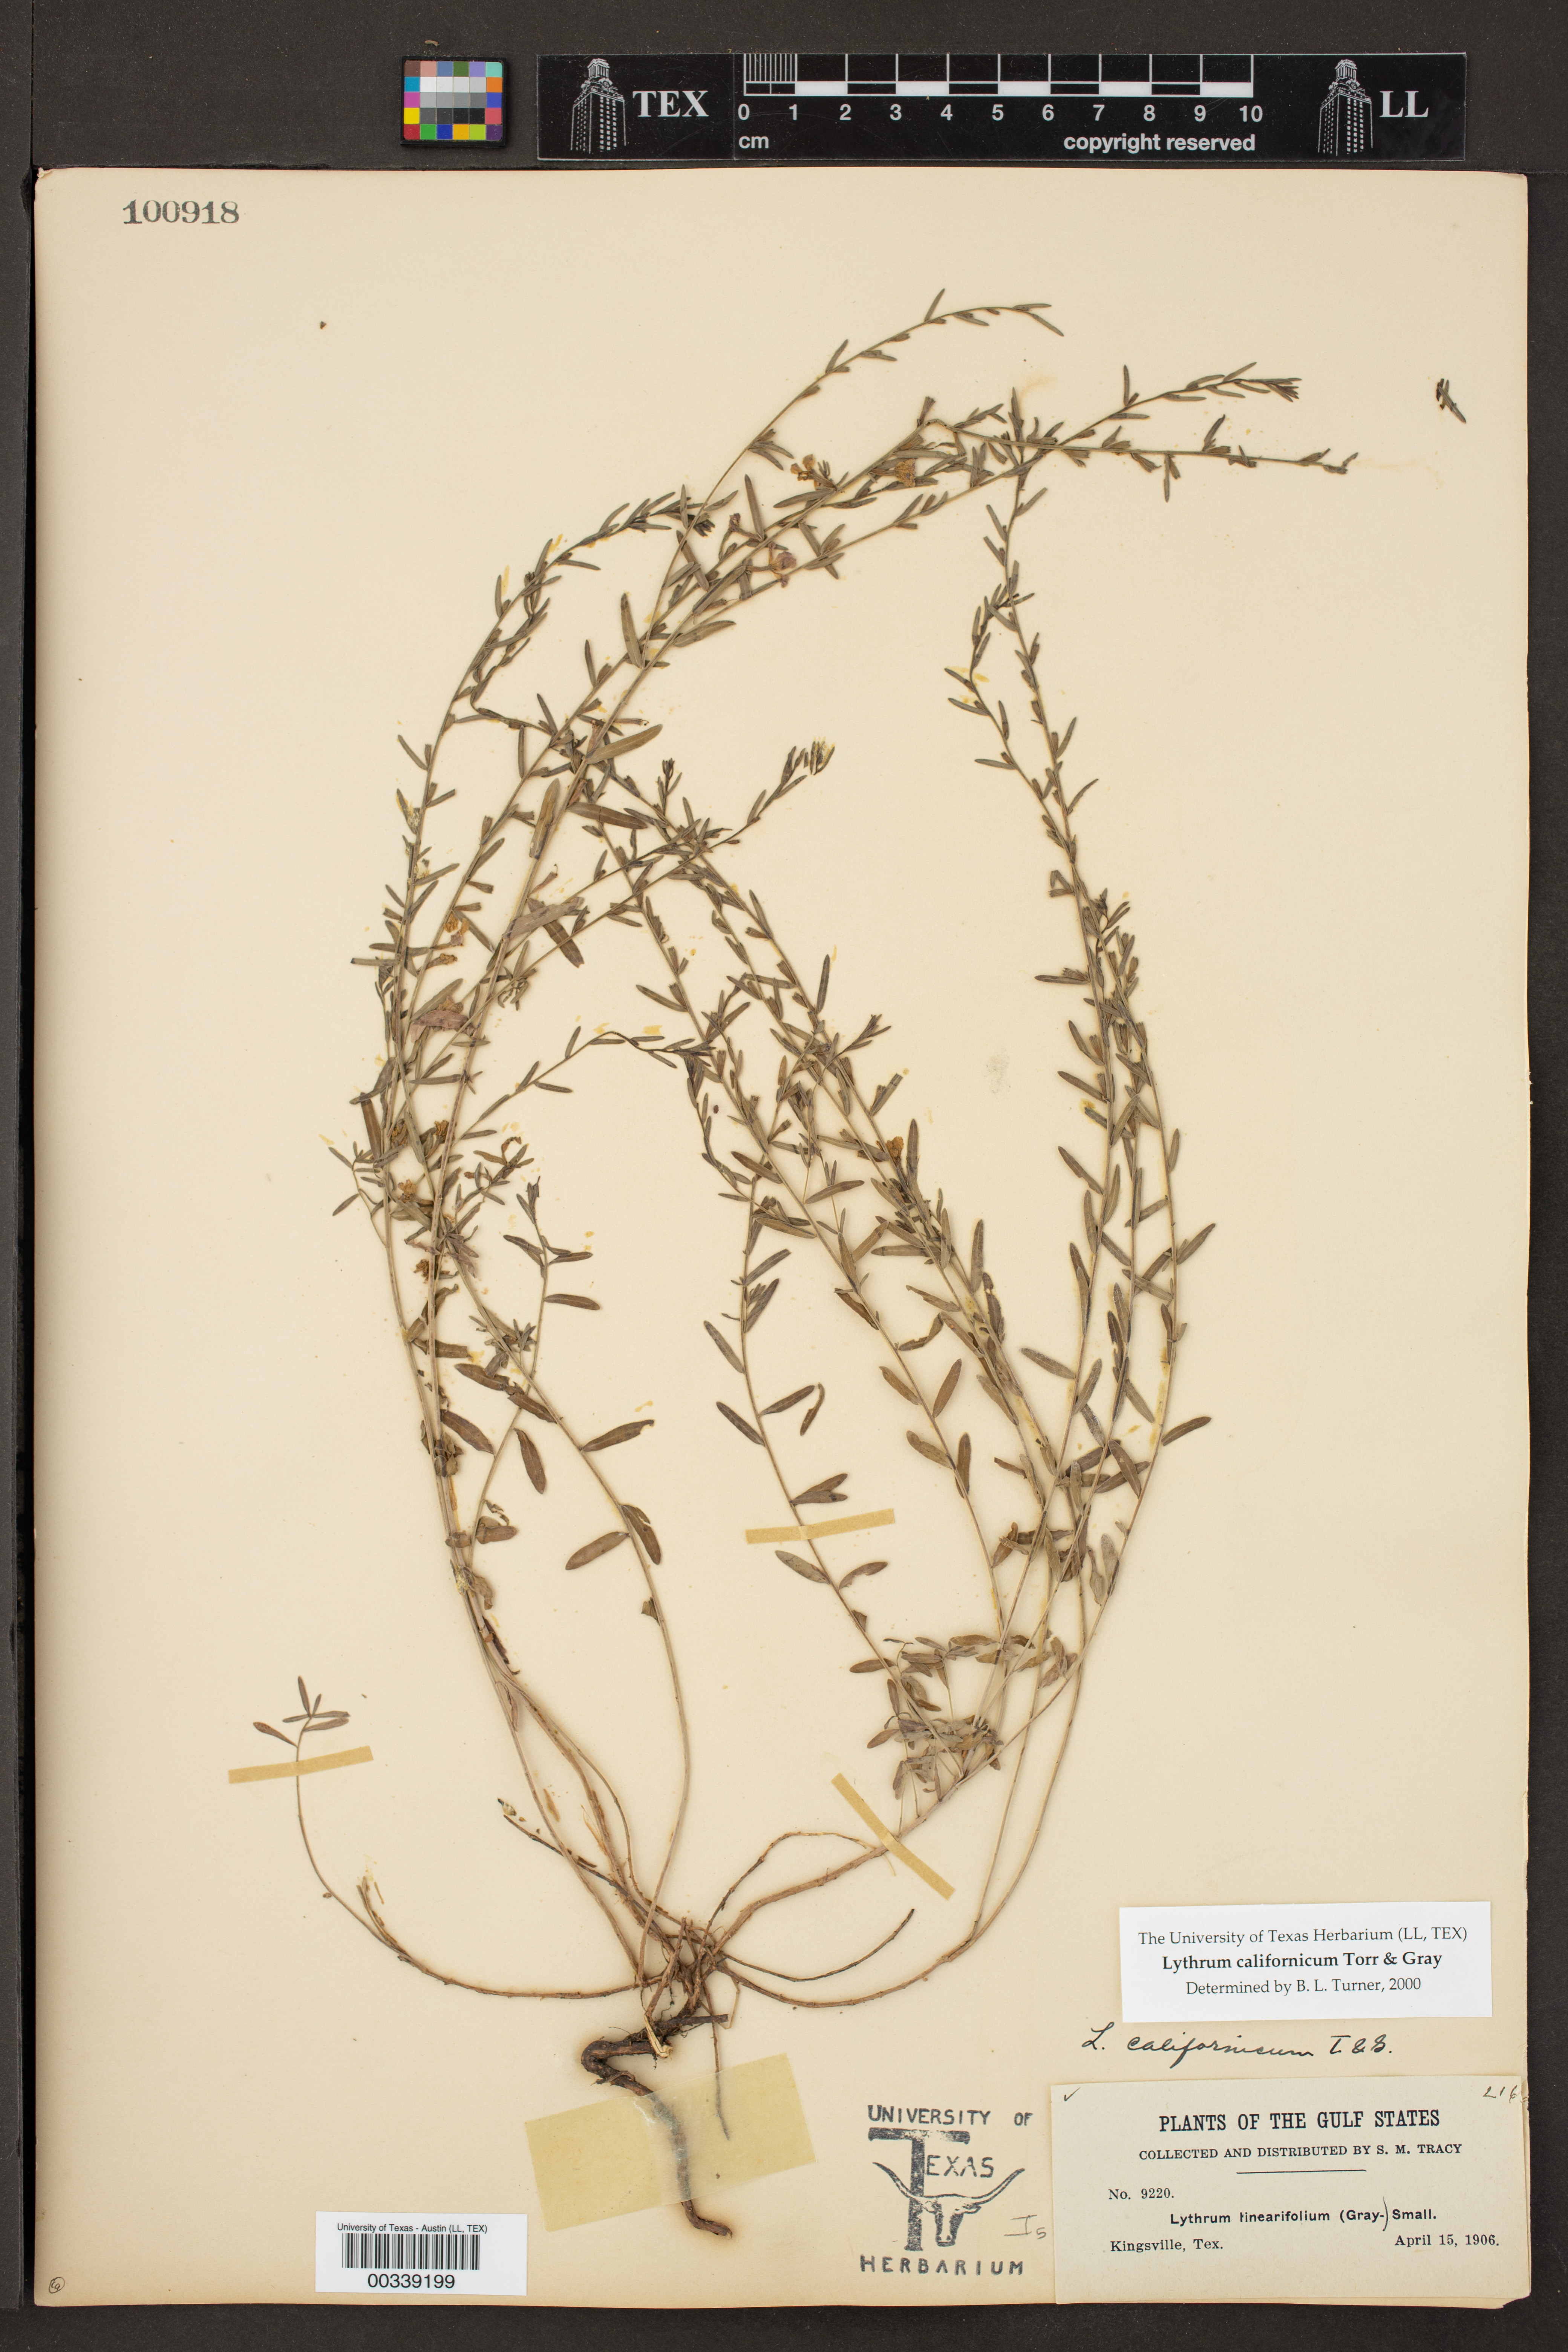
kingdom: Plantae
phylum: Tracheophyta
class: Magnoliopsida
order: Myrtales
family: Lythraceae
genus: Lythrum
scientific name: Lythrum californicum
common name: California loosestrife
